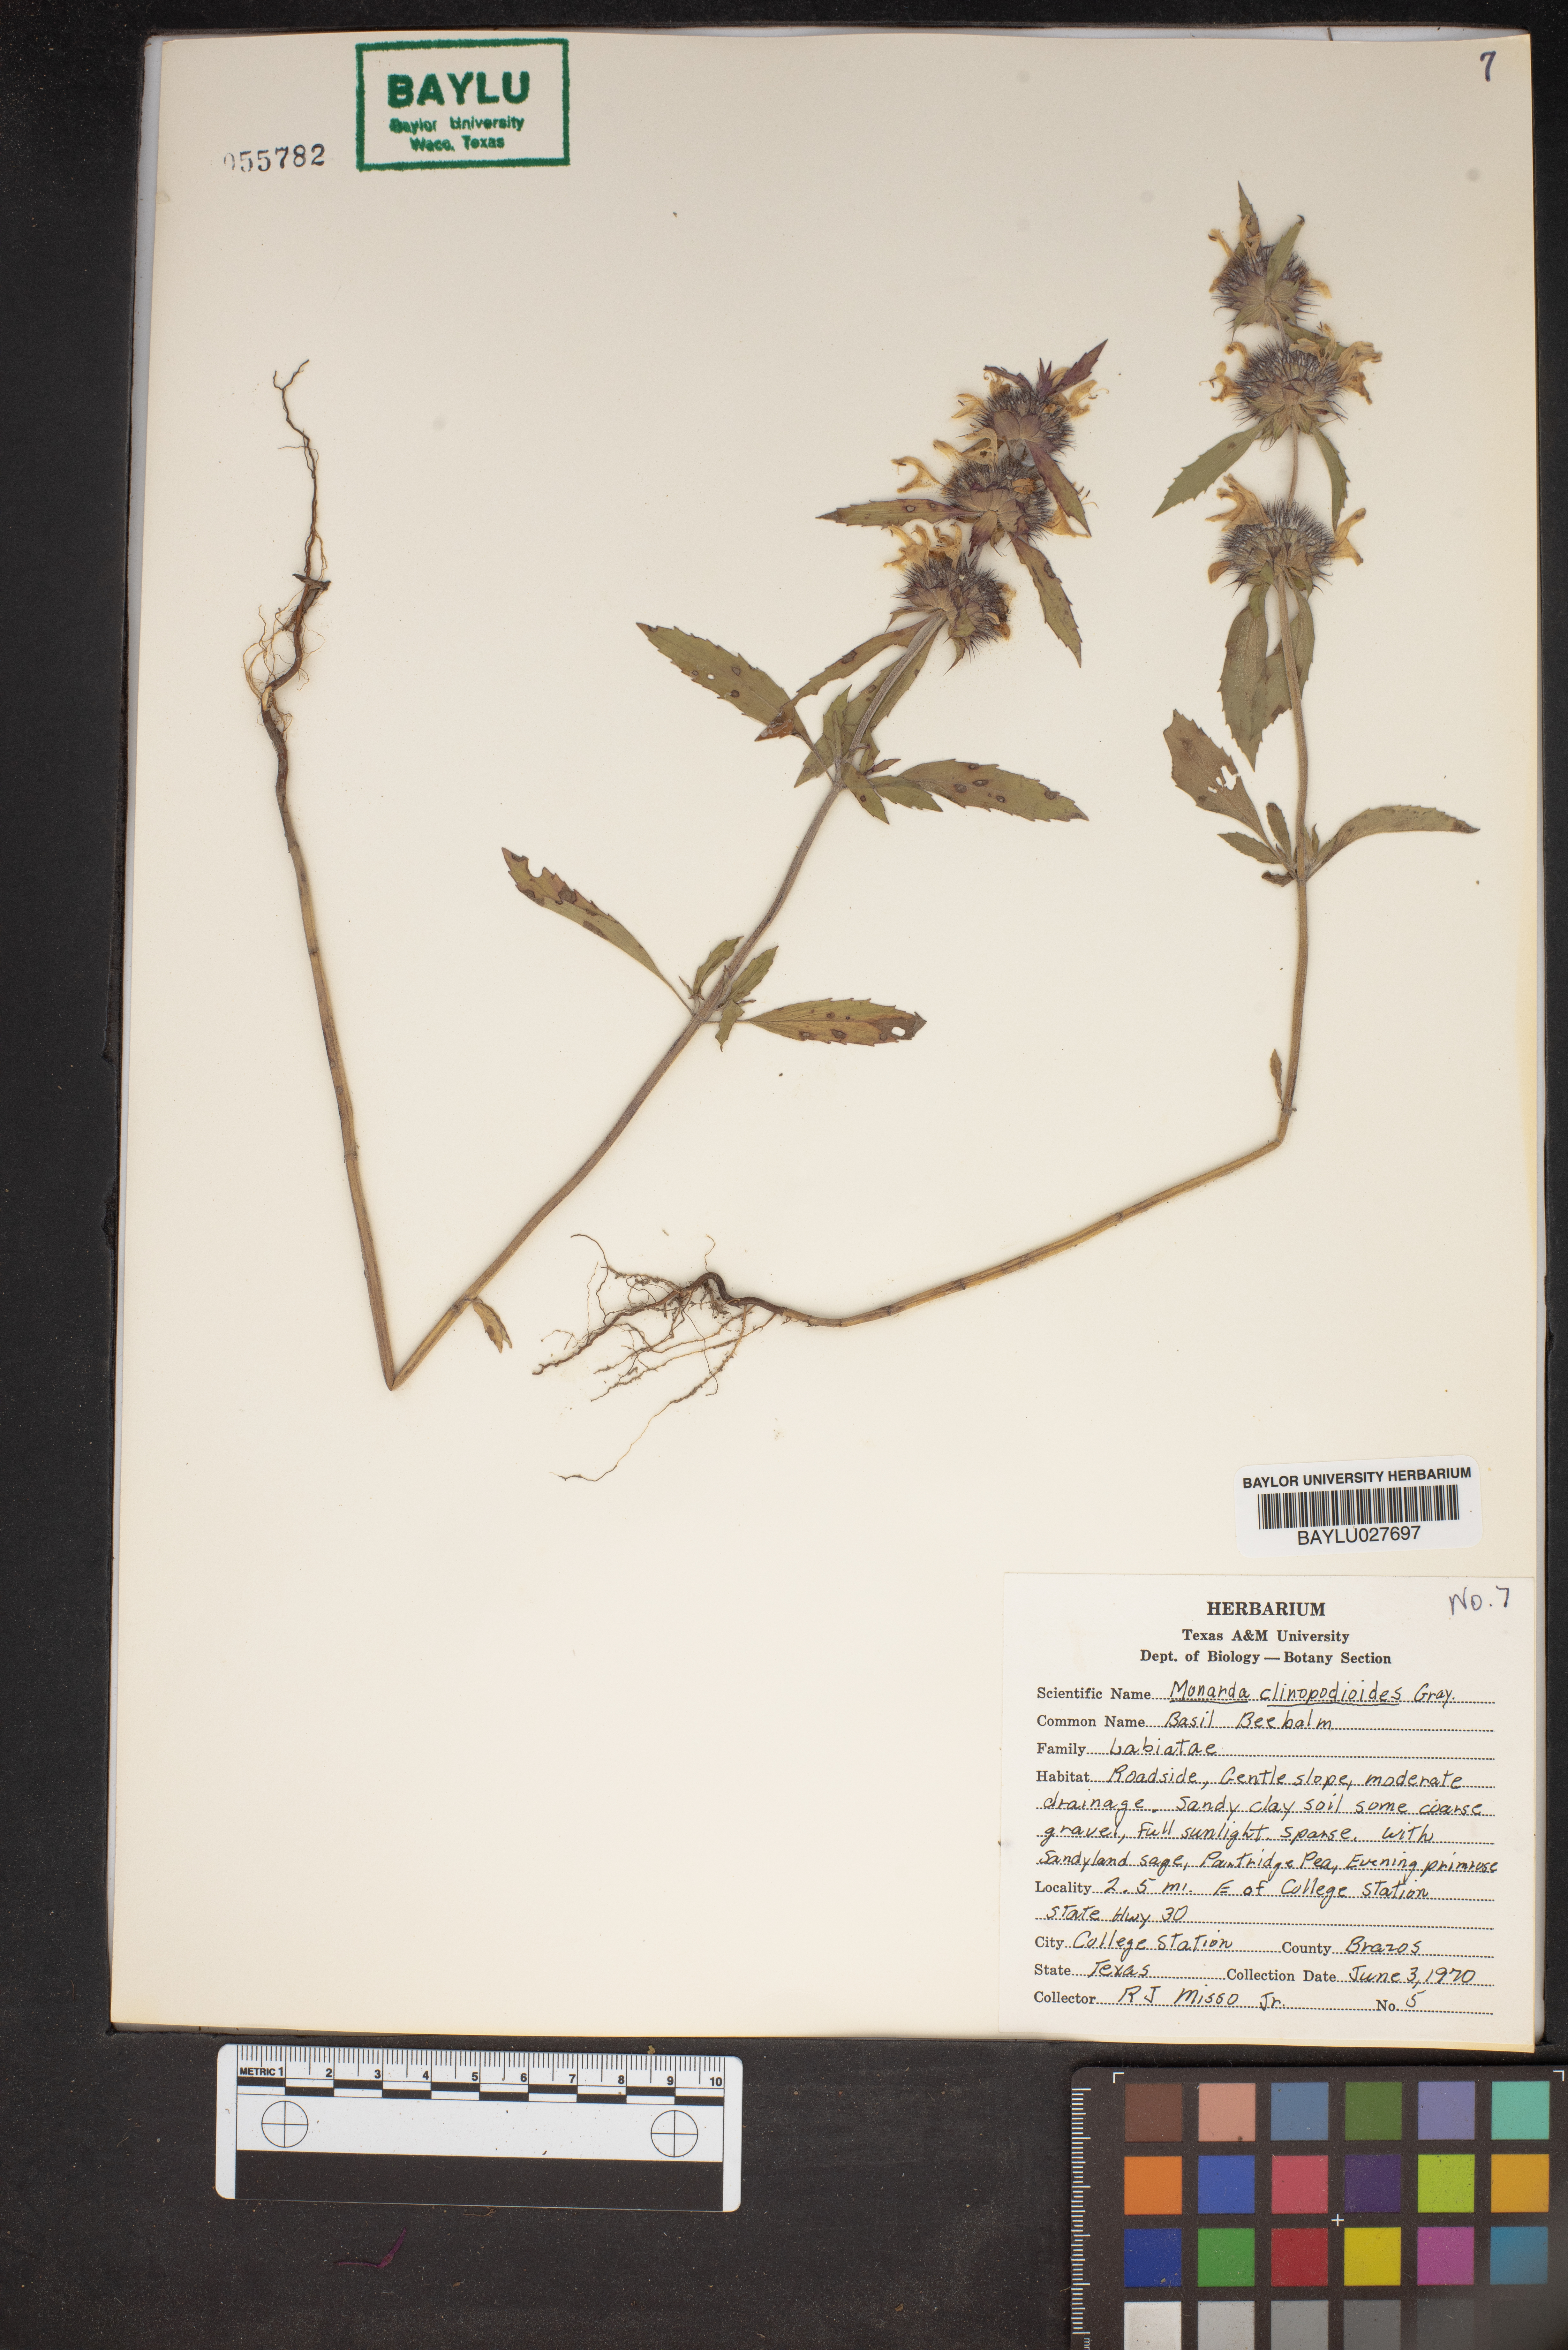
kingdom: Plantae
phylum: Tracheophyta
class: Magnoliopsida
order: Lamiales
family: Lamiaceae
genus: Monarda
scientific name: Monarda clinopodioides
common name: Basil beebalm
